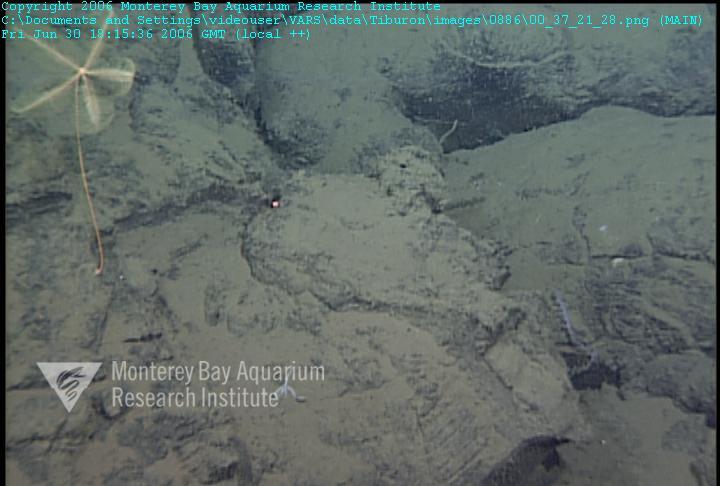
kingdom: Animalia
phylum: Porifera
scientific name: Porifera
